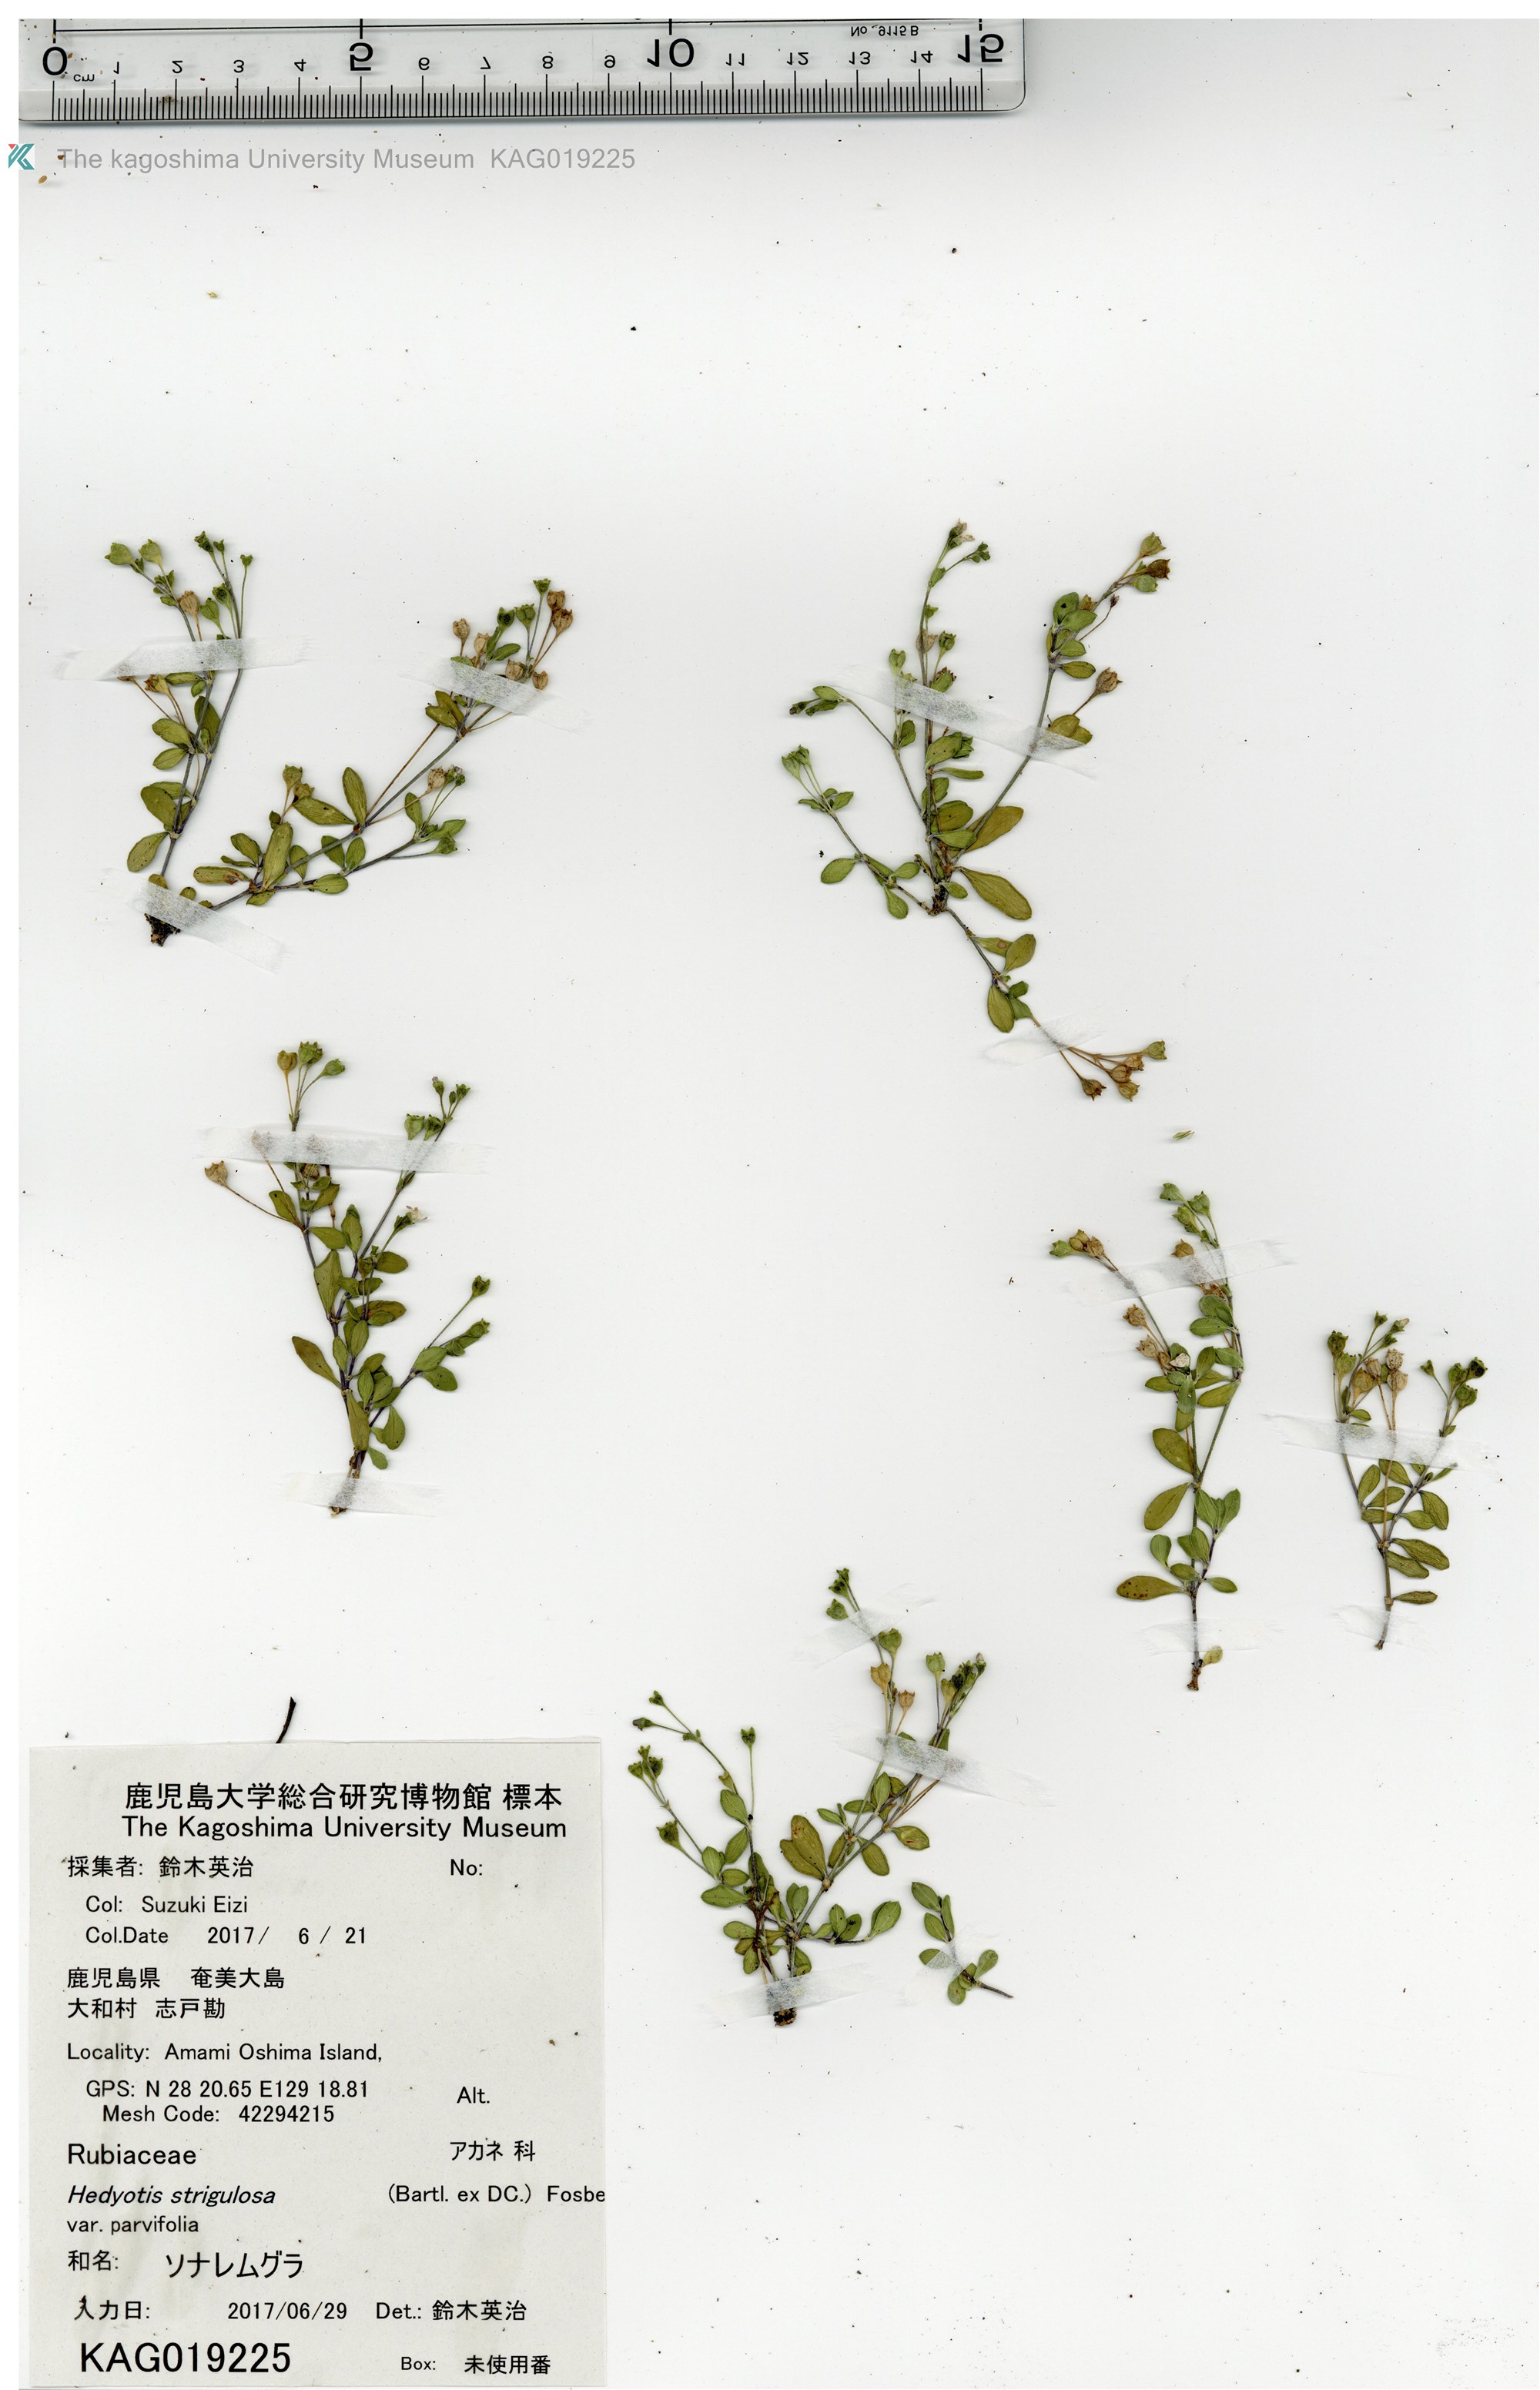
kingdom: Plantae
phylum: Tracheophyta
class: Magnoliopsida
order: Gentianales
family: Rubiaceae
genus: Leptopetalum
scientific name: Leptopetalum biflorum
